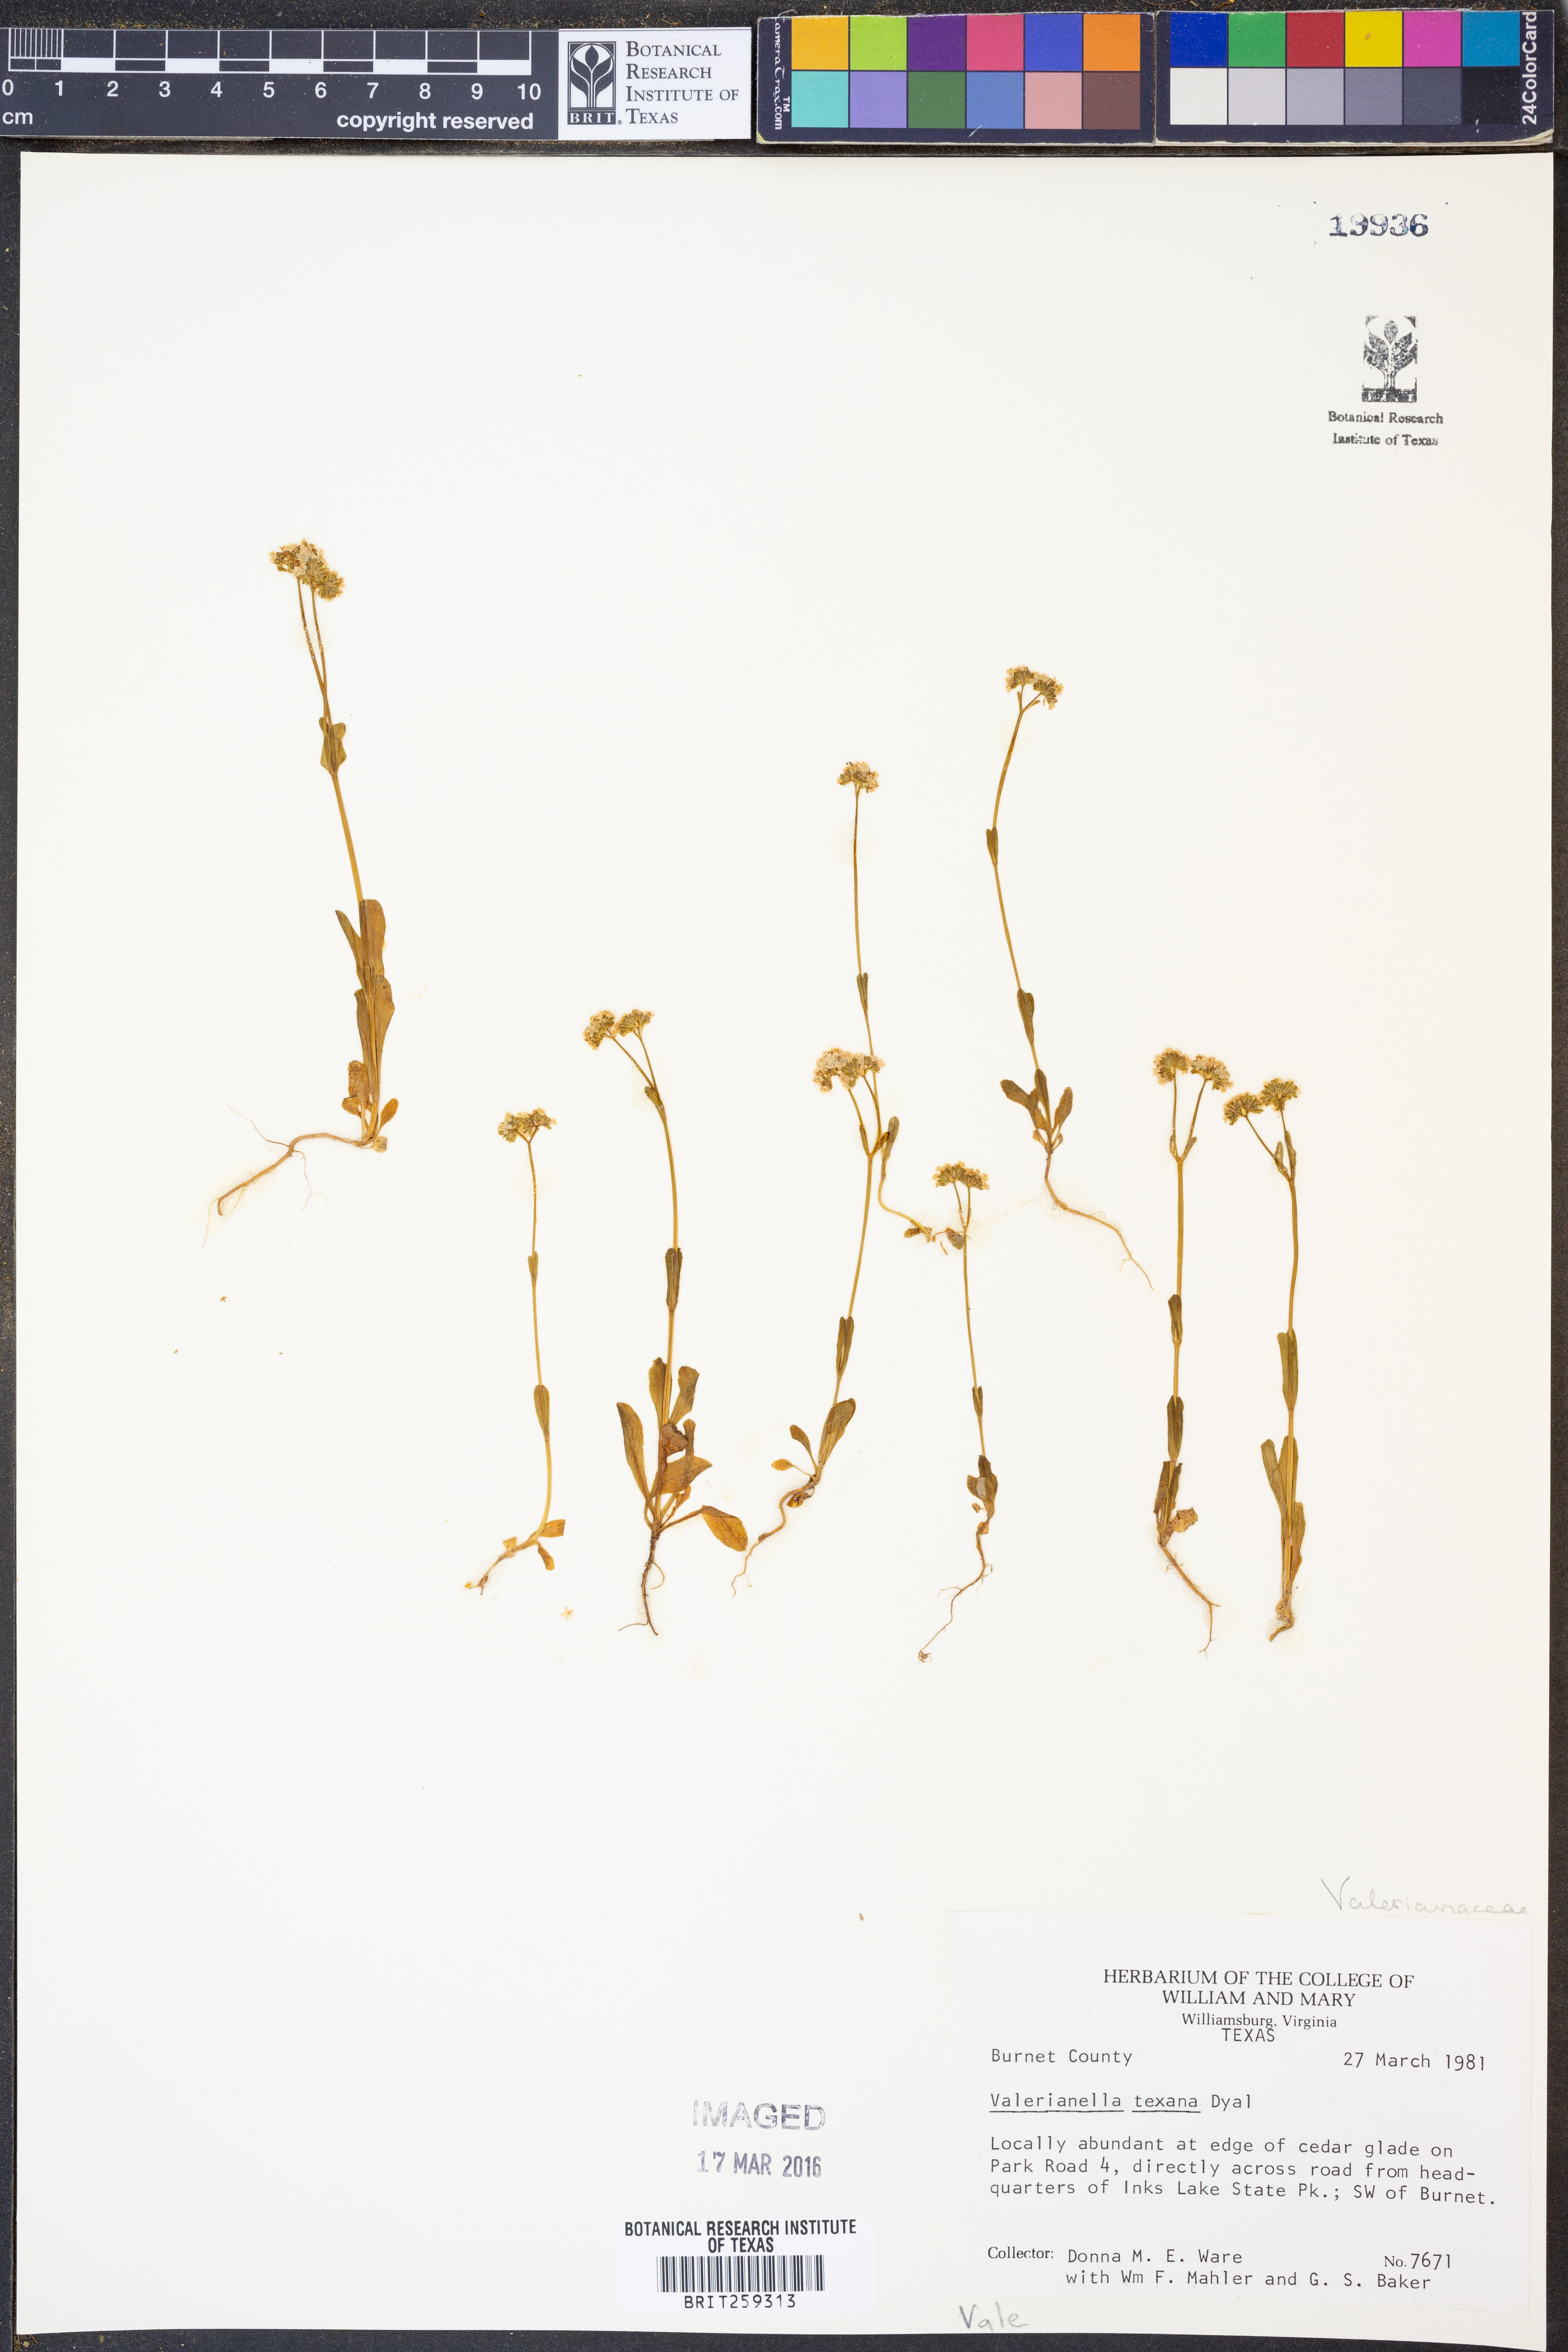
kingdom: Plantae
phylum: Tracheophyta
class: Magnoliopsida
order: Dipsacales
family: Caprifoliaceae
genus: Valerianella
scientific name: Valerianella texana
